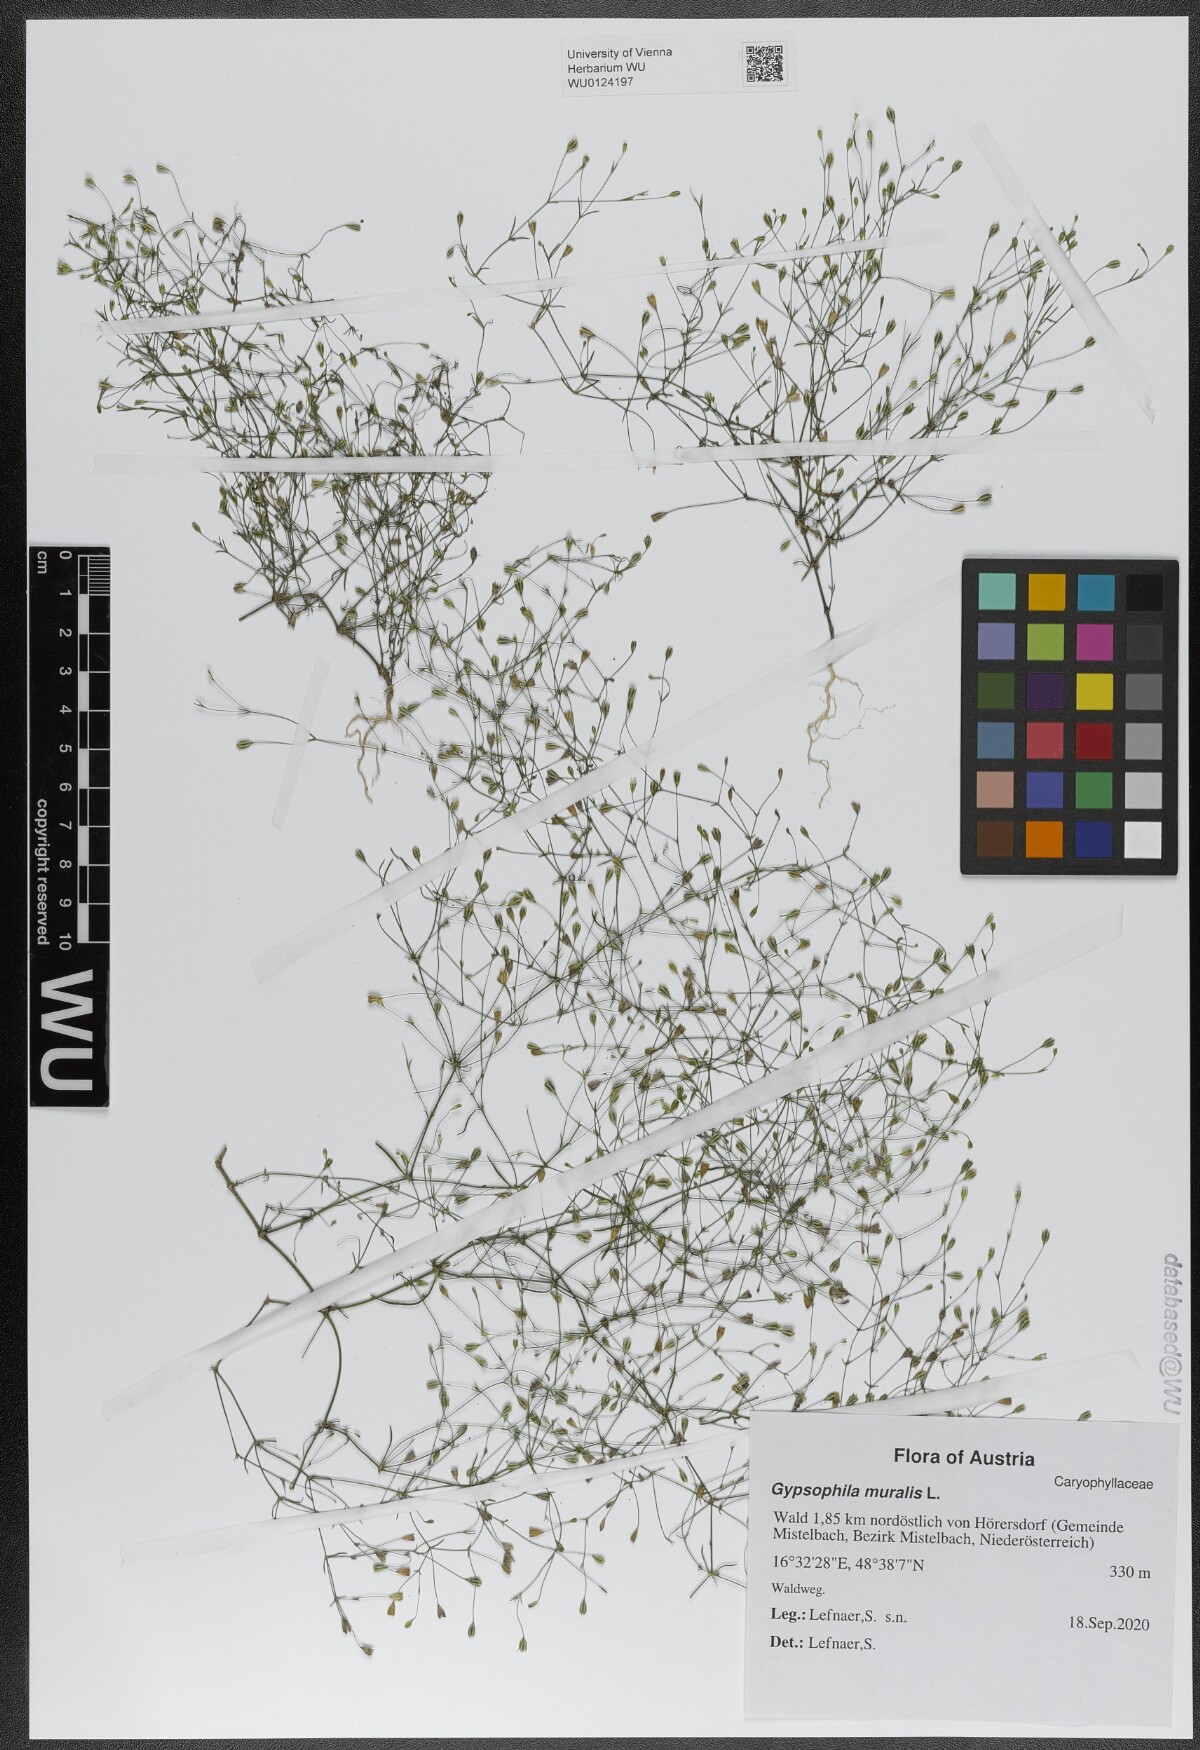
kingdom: Plantae
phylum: Tracheophyta
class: Magnoliopsida
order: Caryophyllales
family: Caryophyllaceae
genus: Psammophiliella
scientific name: Psammophiliella muralis
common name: Cushion baby's-breath
